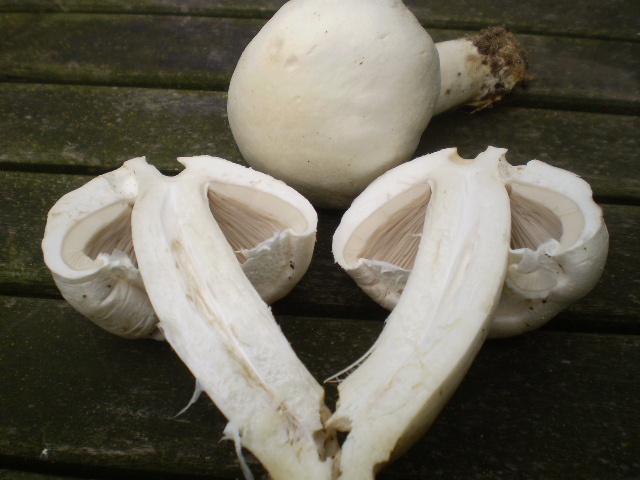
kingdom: Fungi
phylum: Basidiomycota
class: Agaricomycetes
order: Agaricales
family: Agaricaceae
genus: Agaricus
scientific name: Agaricus campestris
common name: mark-champignon
